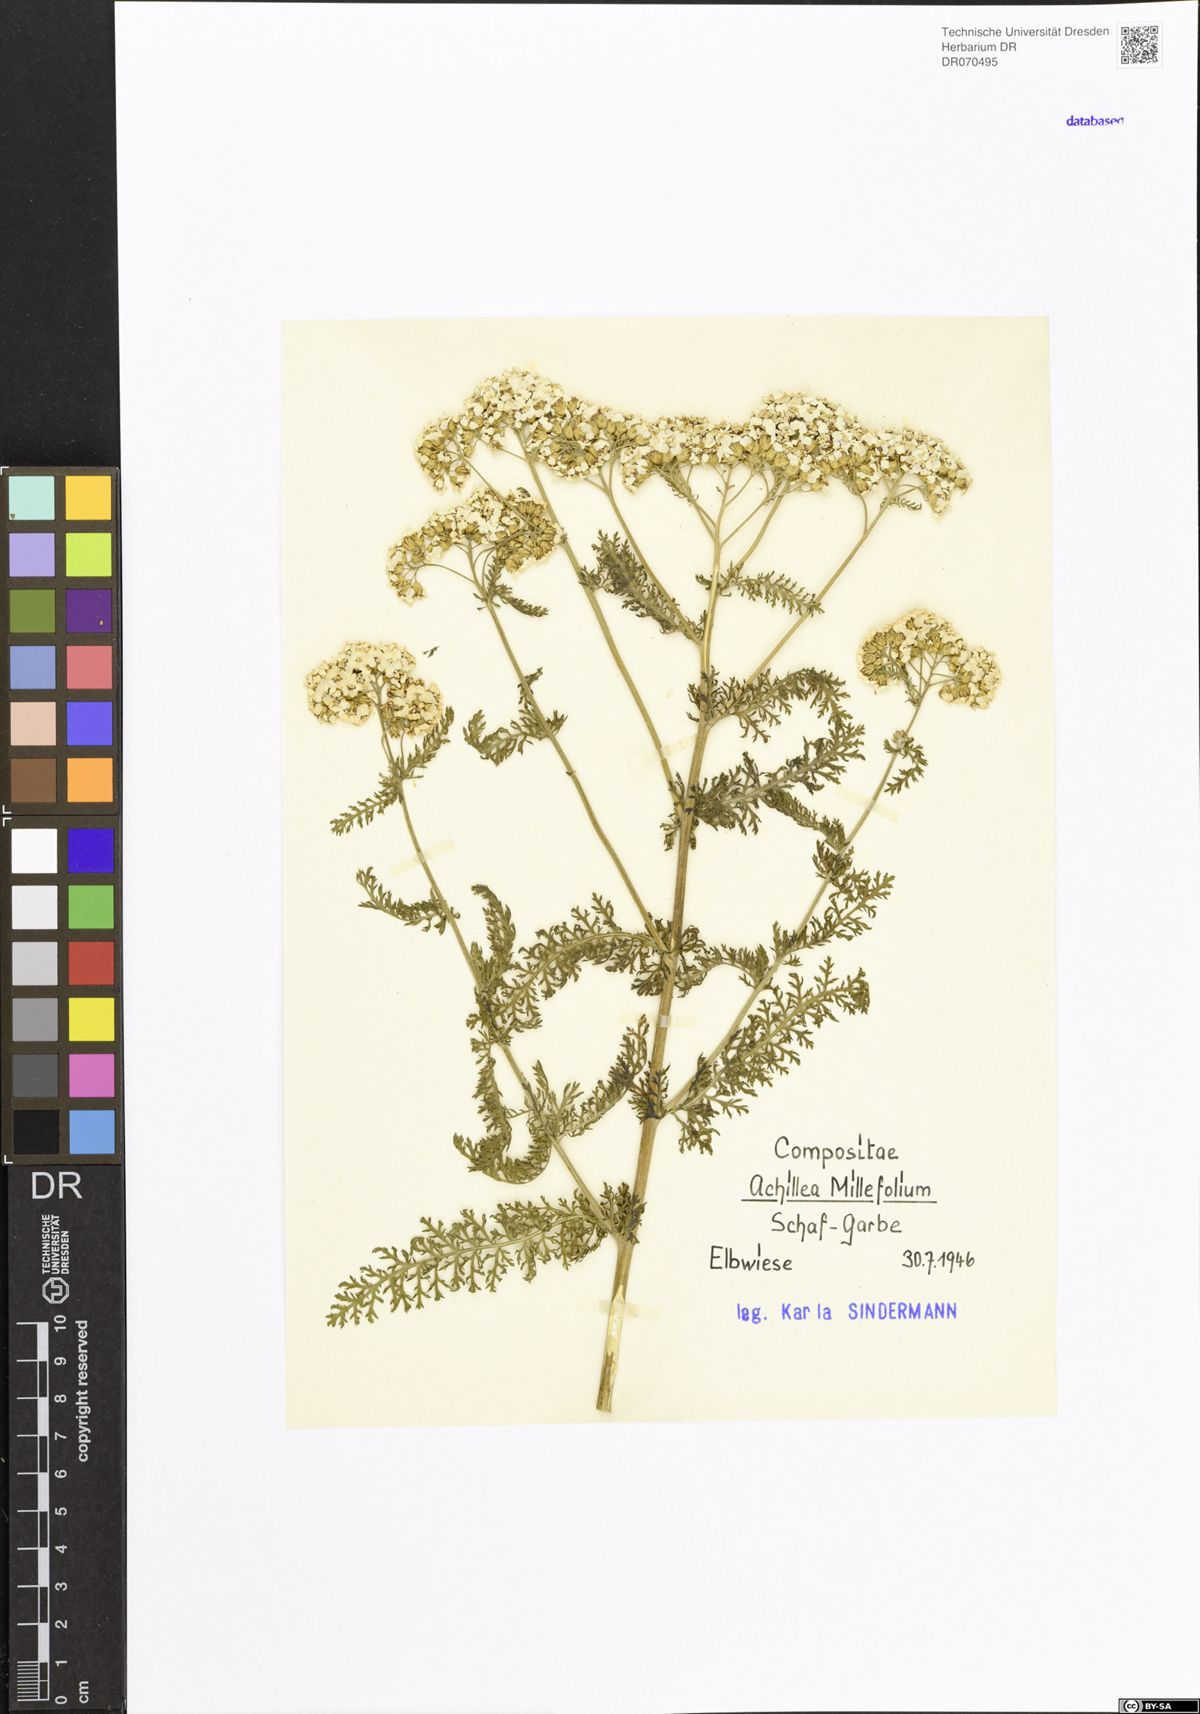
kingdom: Plantae
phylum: Tracheophyta
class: Magnoliopsida
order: Asterales
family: Asteraceae
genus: Achillea
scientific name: Achillea millefolium
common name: Yarrow
